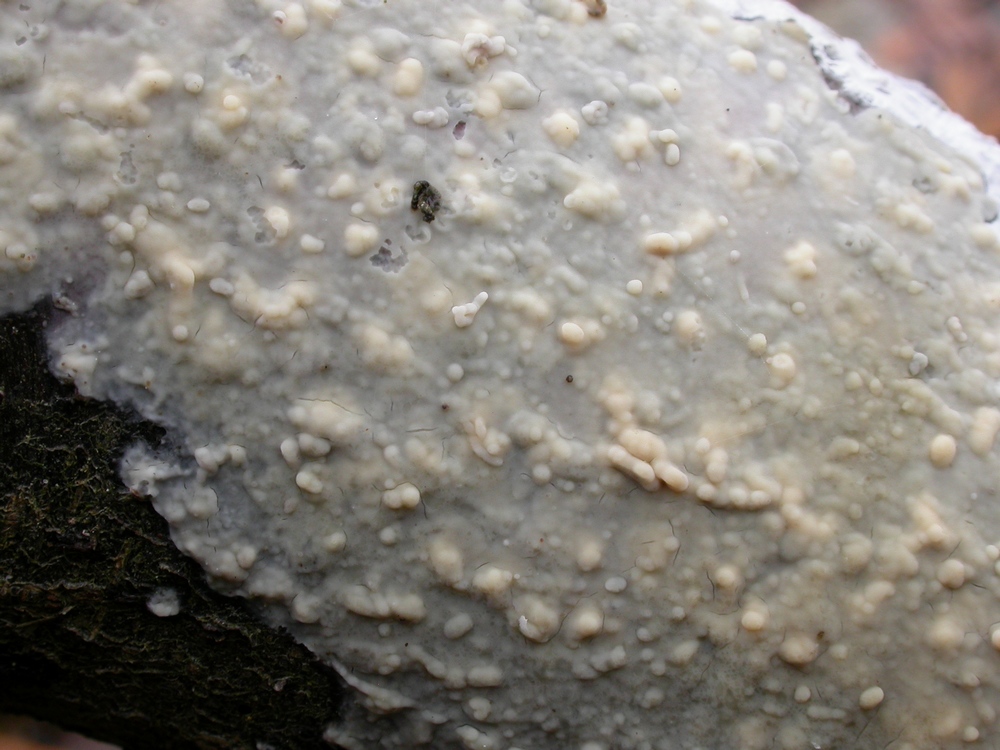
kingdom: Fungi
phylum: Basidiomycota
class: Agaricomycetes
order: Russulales
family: Stereaceae
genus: Gloeocystidiellum
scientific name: Gloeocystidiellum porosum
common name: mælkehvid olieskind
